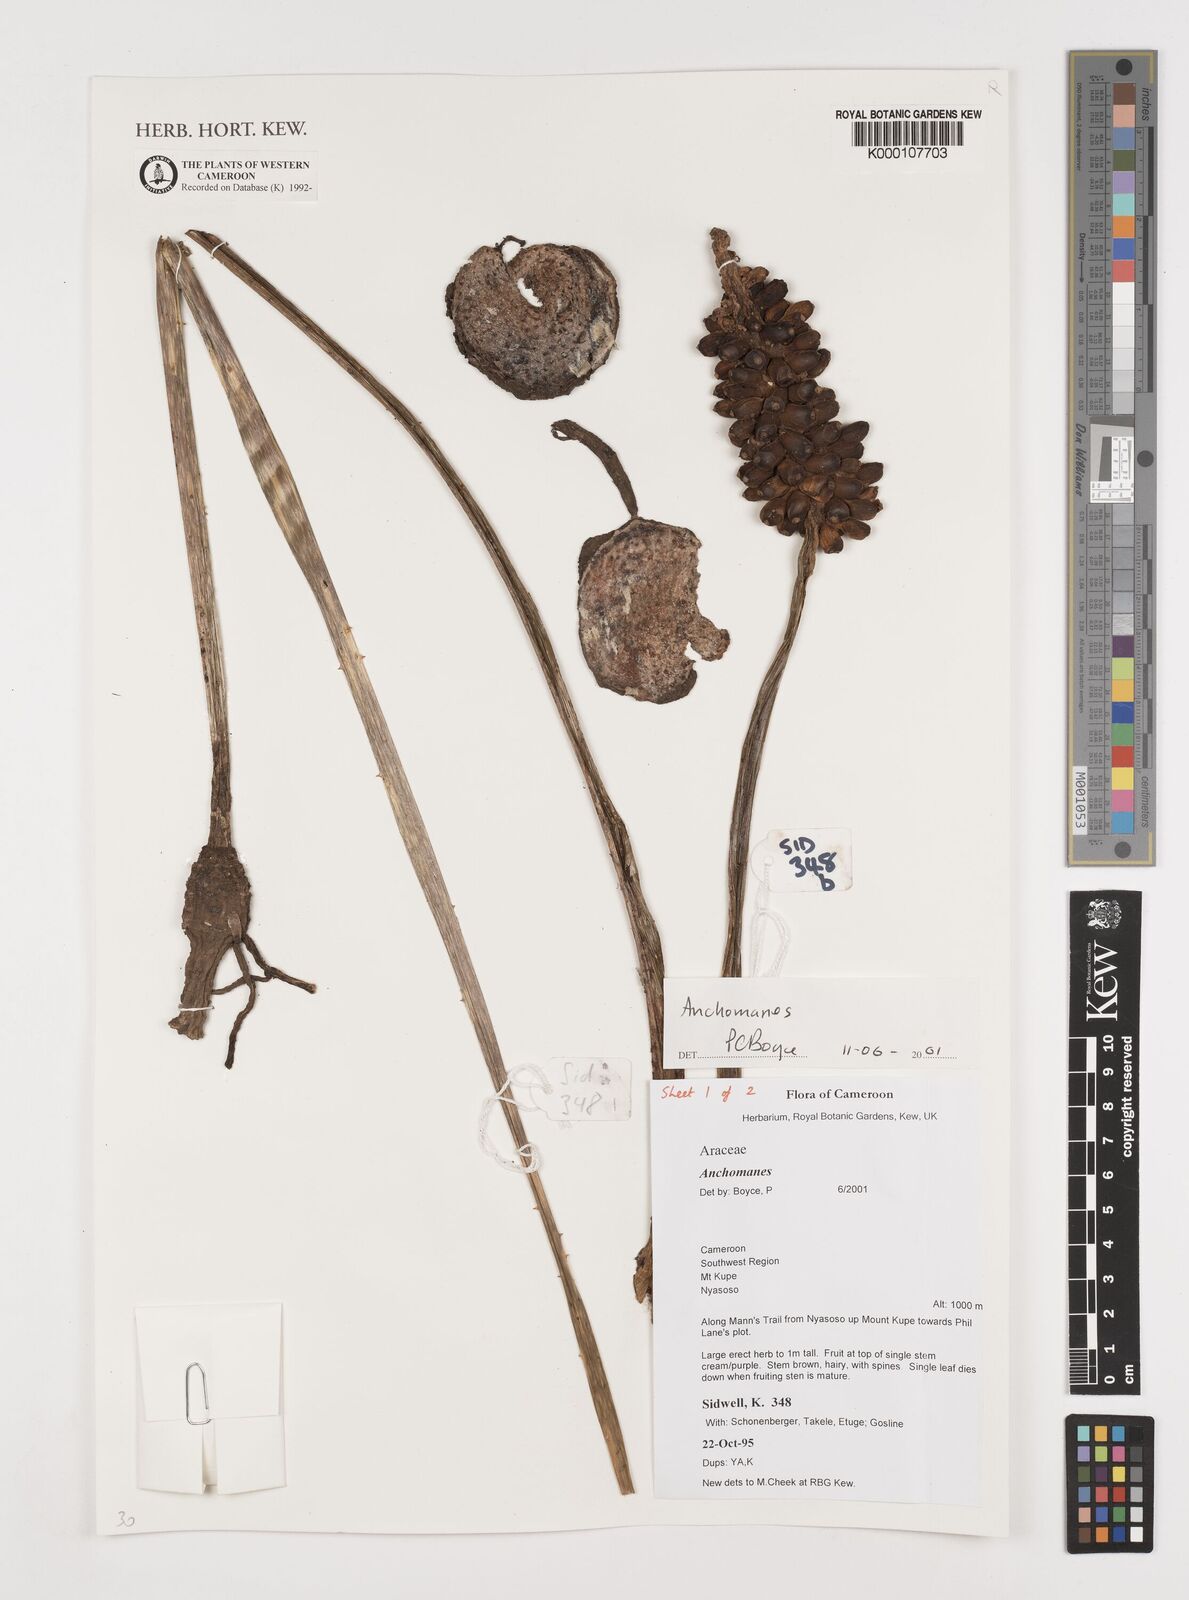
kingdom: Plantae
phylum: Tracheophyta
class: Liliopsida
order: Alismatales
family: Araceae
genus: Anchomanes
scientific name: Anchomanes
